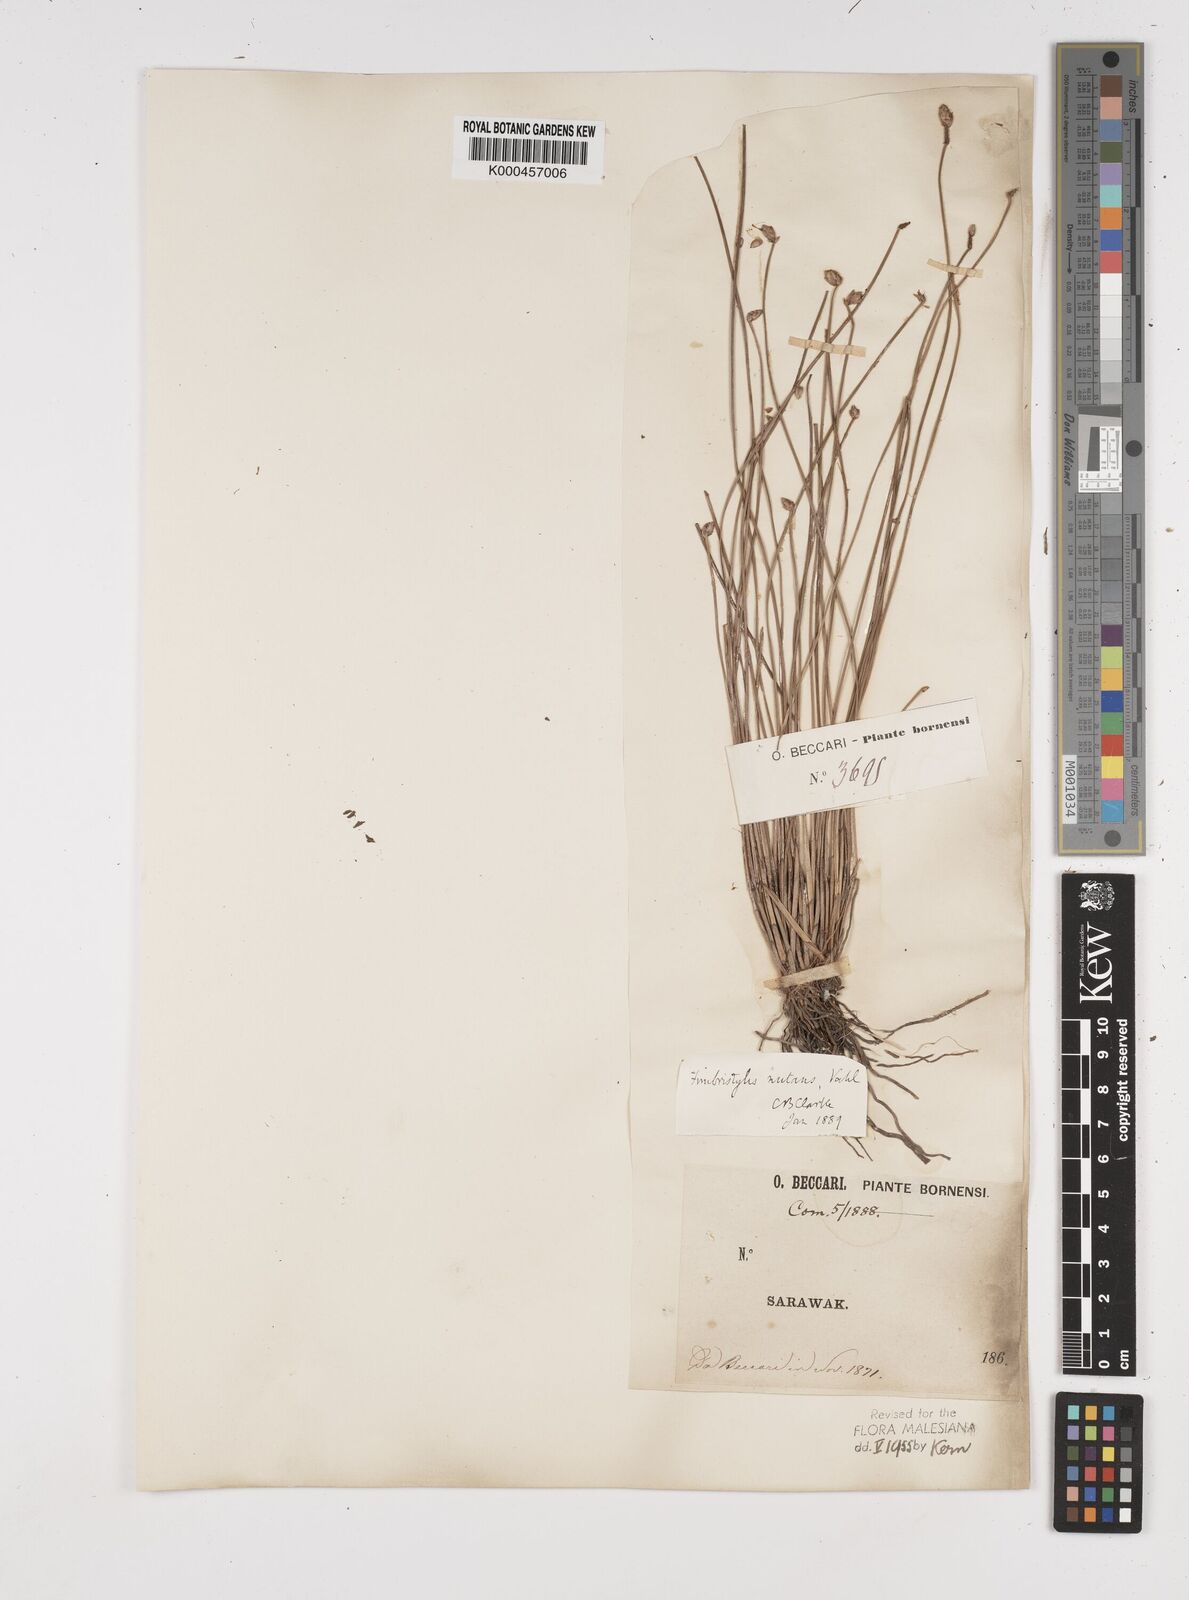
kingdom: Plantae
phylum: Tracheophyta
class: Liliopsida
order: Poales
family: Cyperaceae
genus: Fimbristylis
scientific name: Fimbristylis nutans
